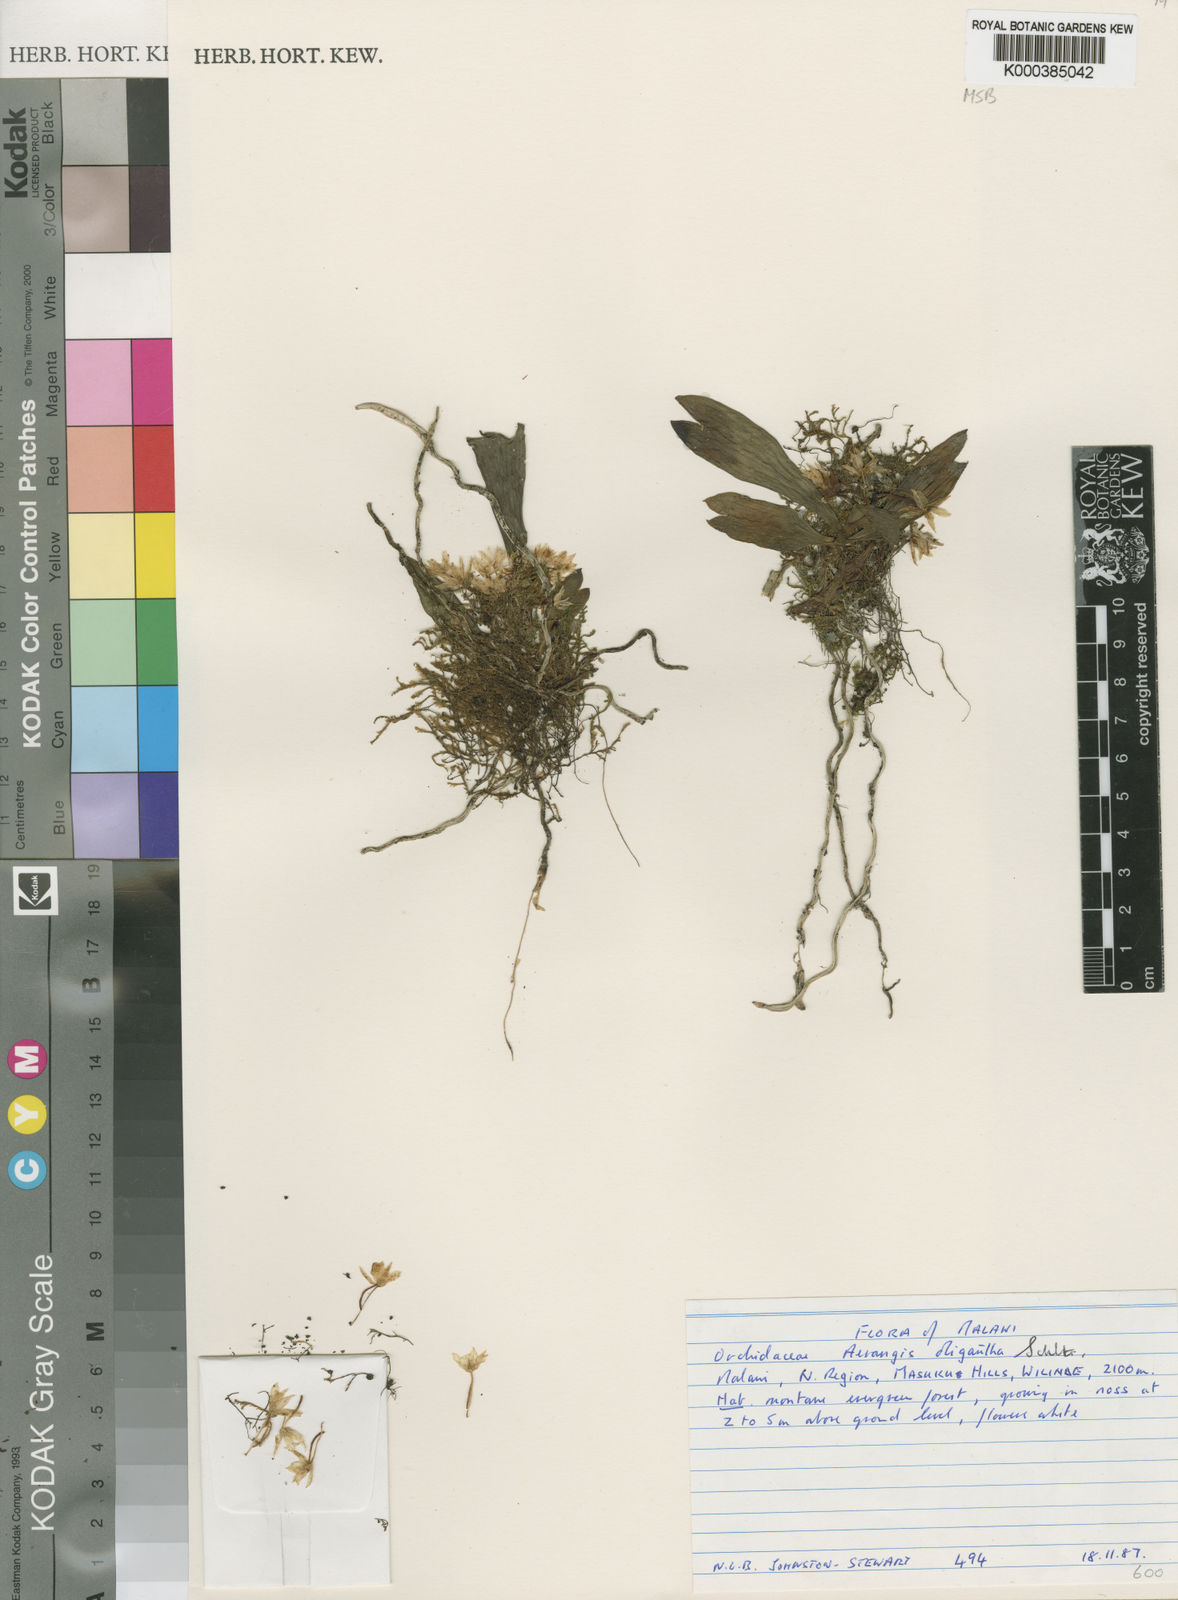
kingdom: Plantae
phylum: Tracheophyta
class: Liliopsida
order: Asparagales
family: Orchidaceae
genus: Aerangis
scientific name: Aerangis oligantha
